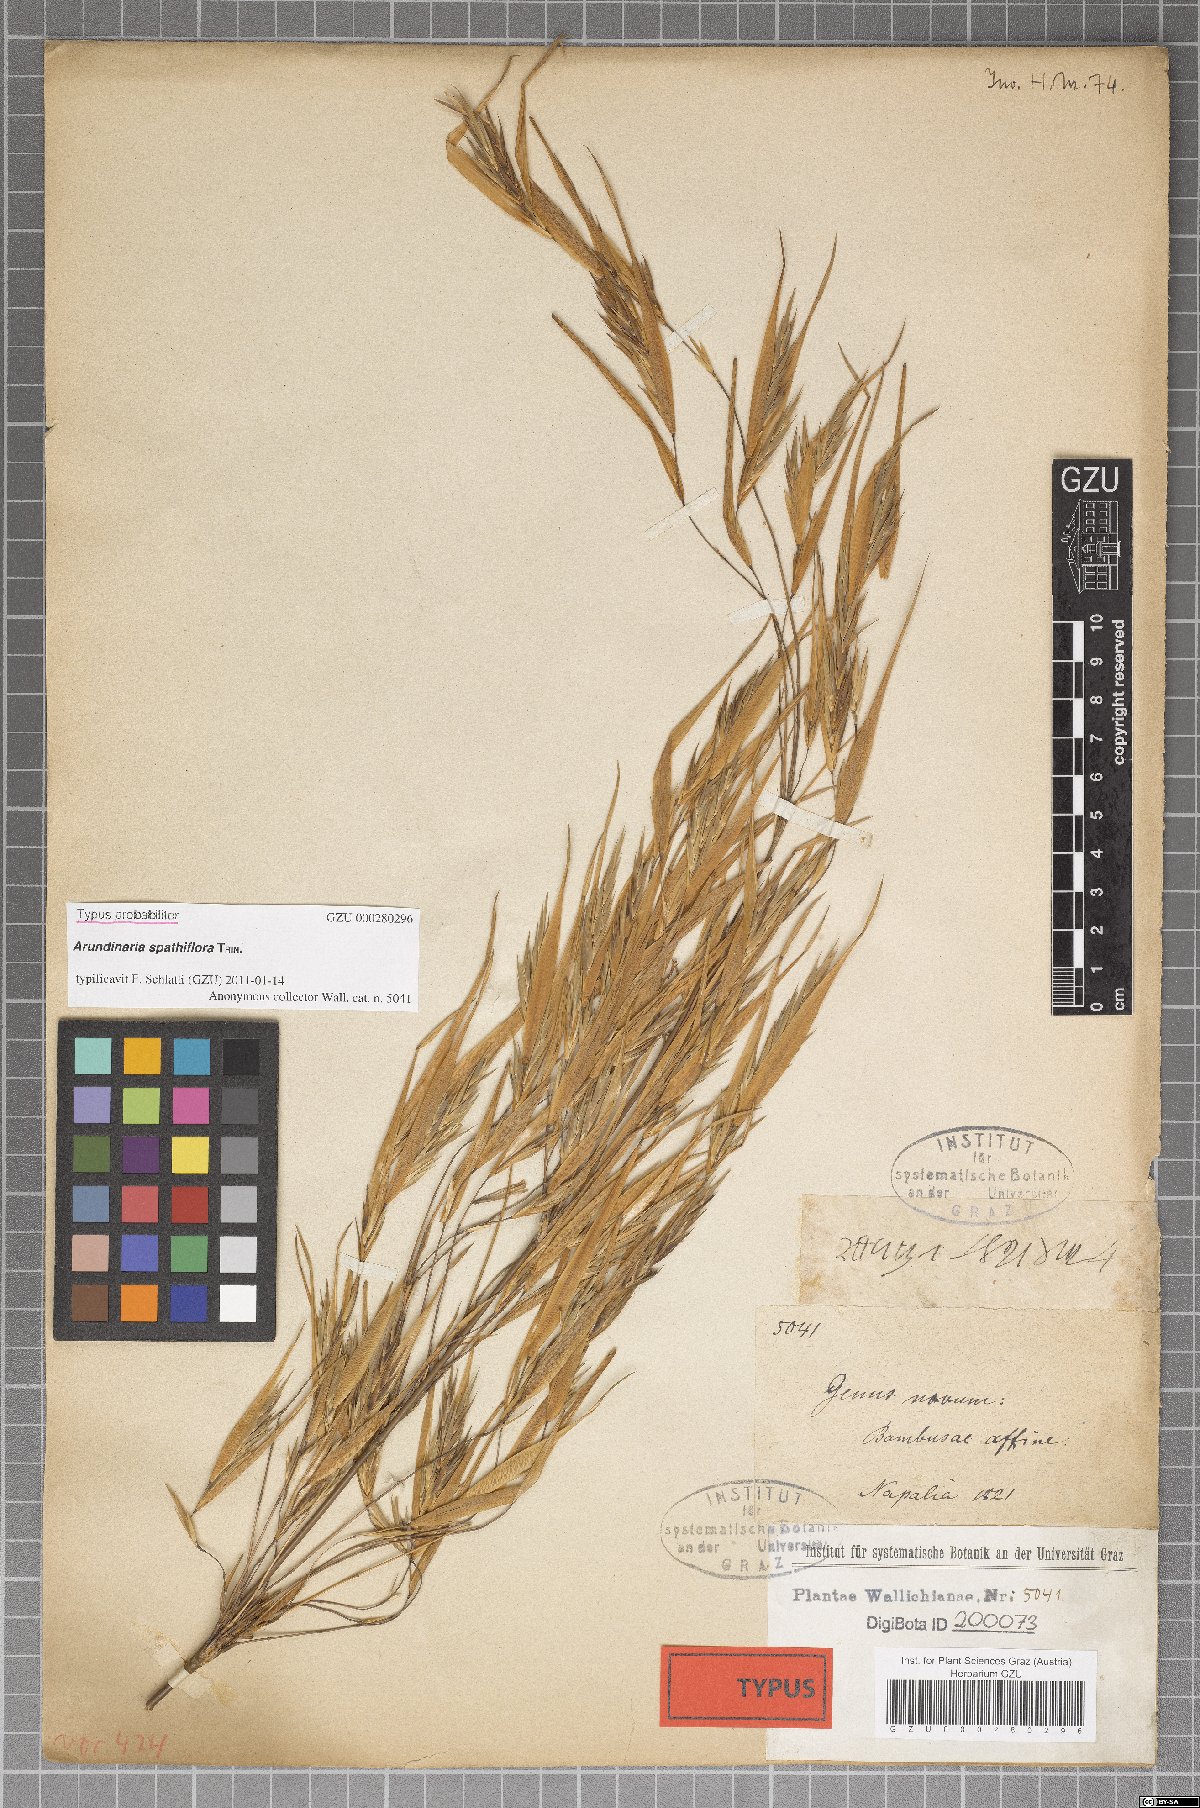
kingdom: Plantae
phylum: Tracheophyta
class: Liliopsida
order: Poales
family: Poaceae
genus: Thamnocalamus
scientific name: Thamnocalamus spathiflorus
